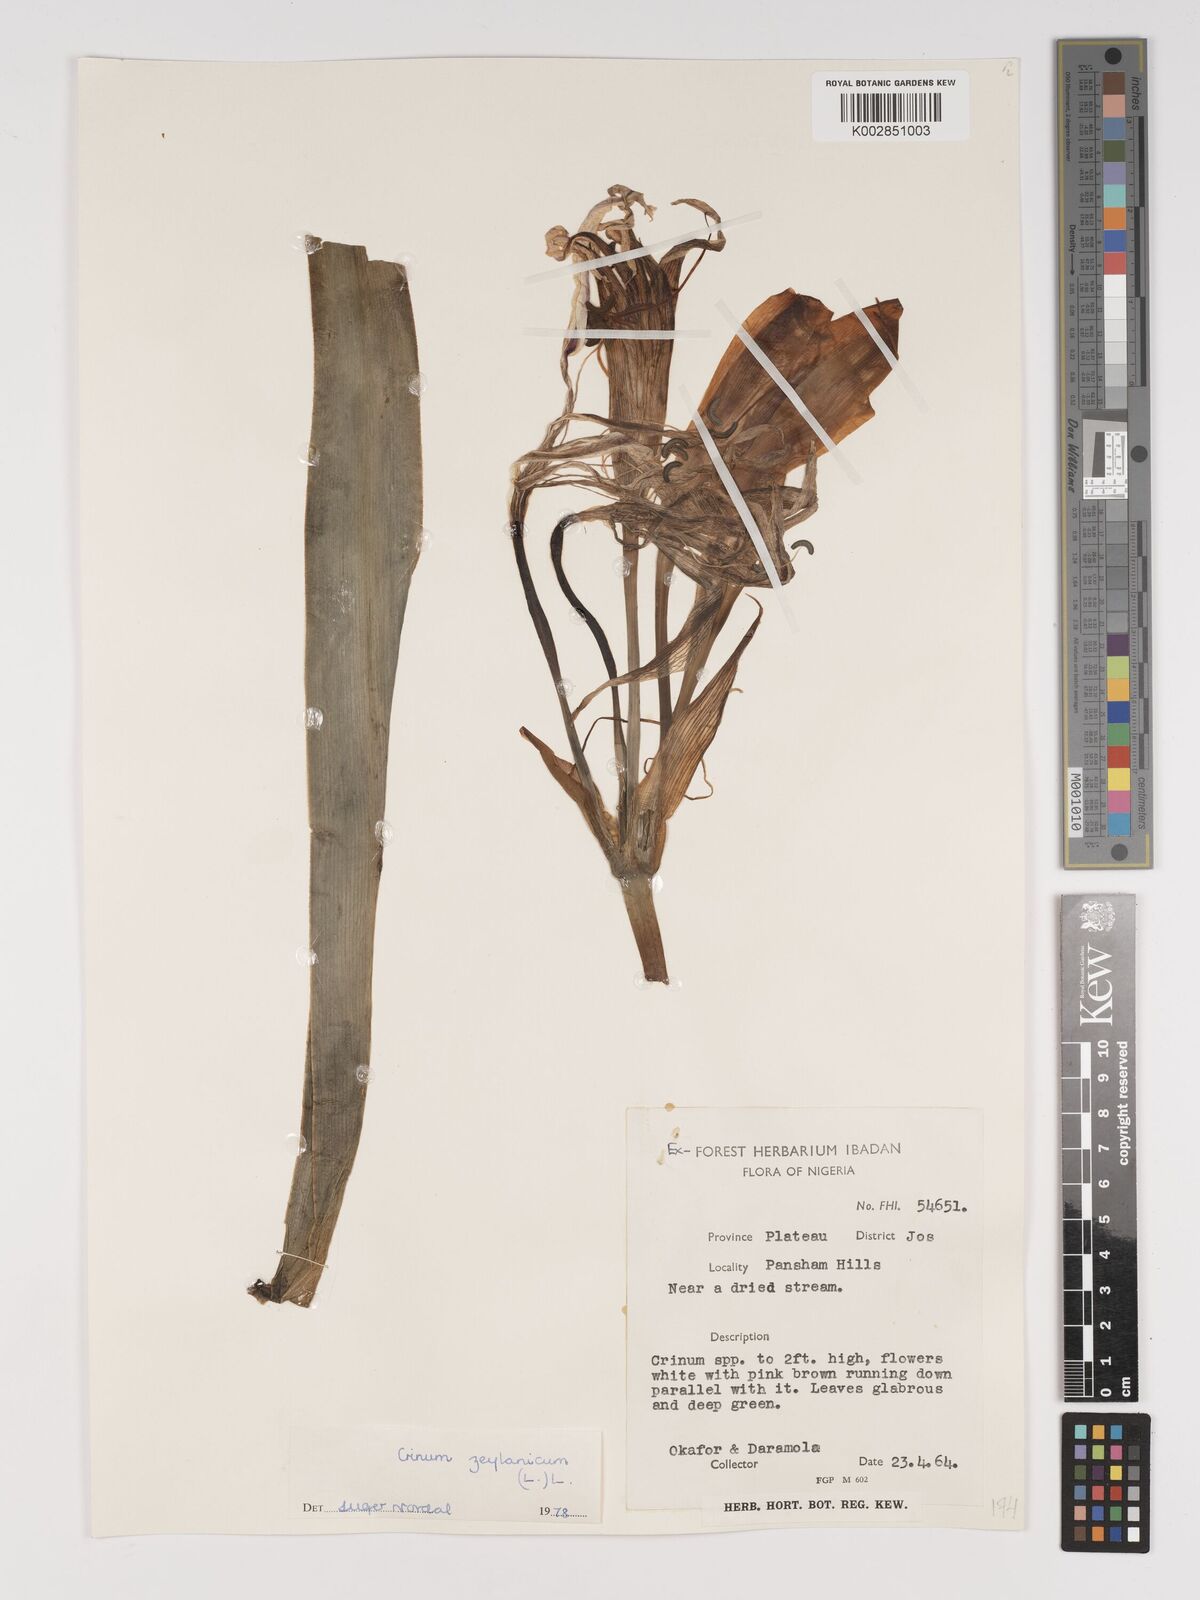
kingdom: Plantae
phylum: Tracheophyta
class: Liliopsida
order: Asparagales
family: Amaryllidaceae
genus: Crinum
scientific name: Crinum ornatum
